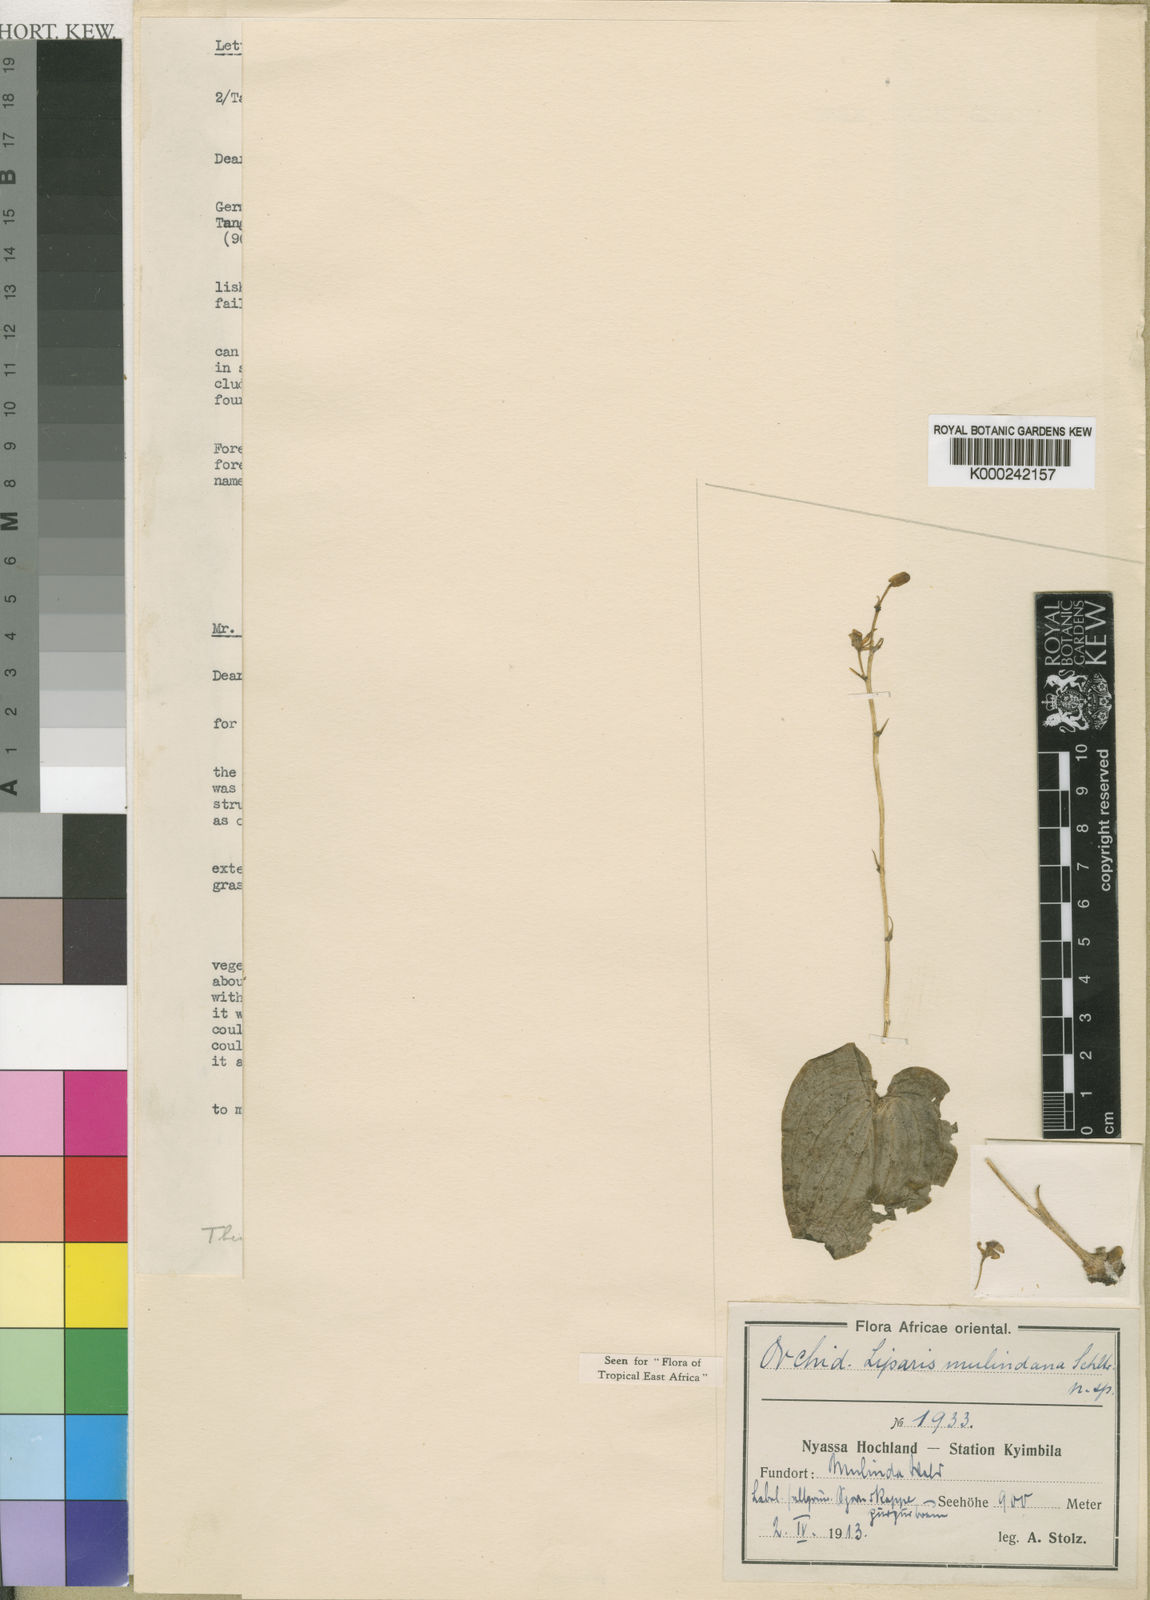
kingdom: Plantae
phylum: Tracheophyta
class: Liliopsida
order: Asparagales
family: Orchidaceae
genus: Liparis
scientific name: Liparis mulindana
